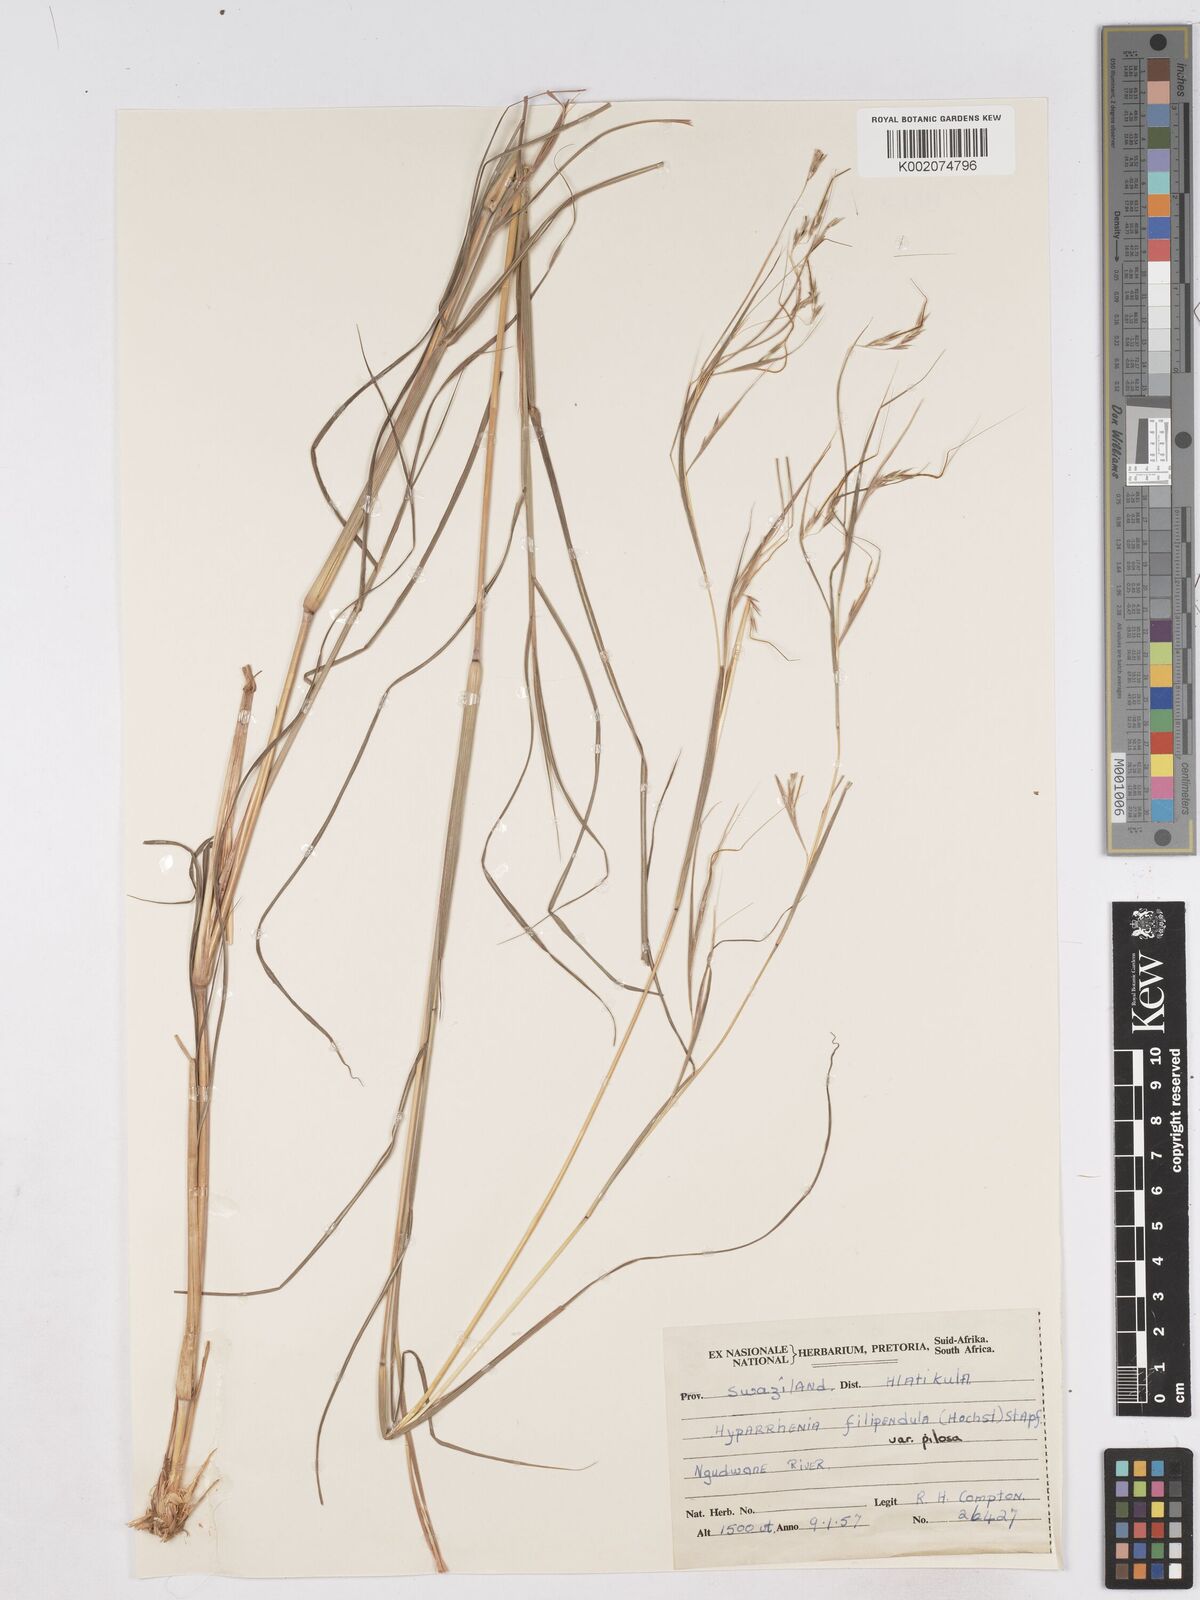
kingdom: Plantae
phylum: Tracheophyta
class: Liliopsida
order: Poales
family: Poaceae
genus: Hyparrhenia
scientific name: Hyparrhenia filipendula
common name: Tambookie grass
